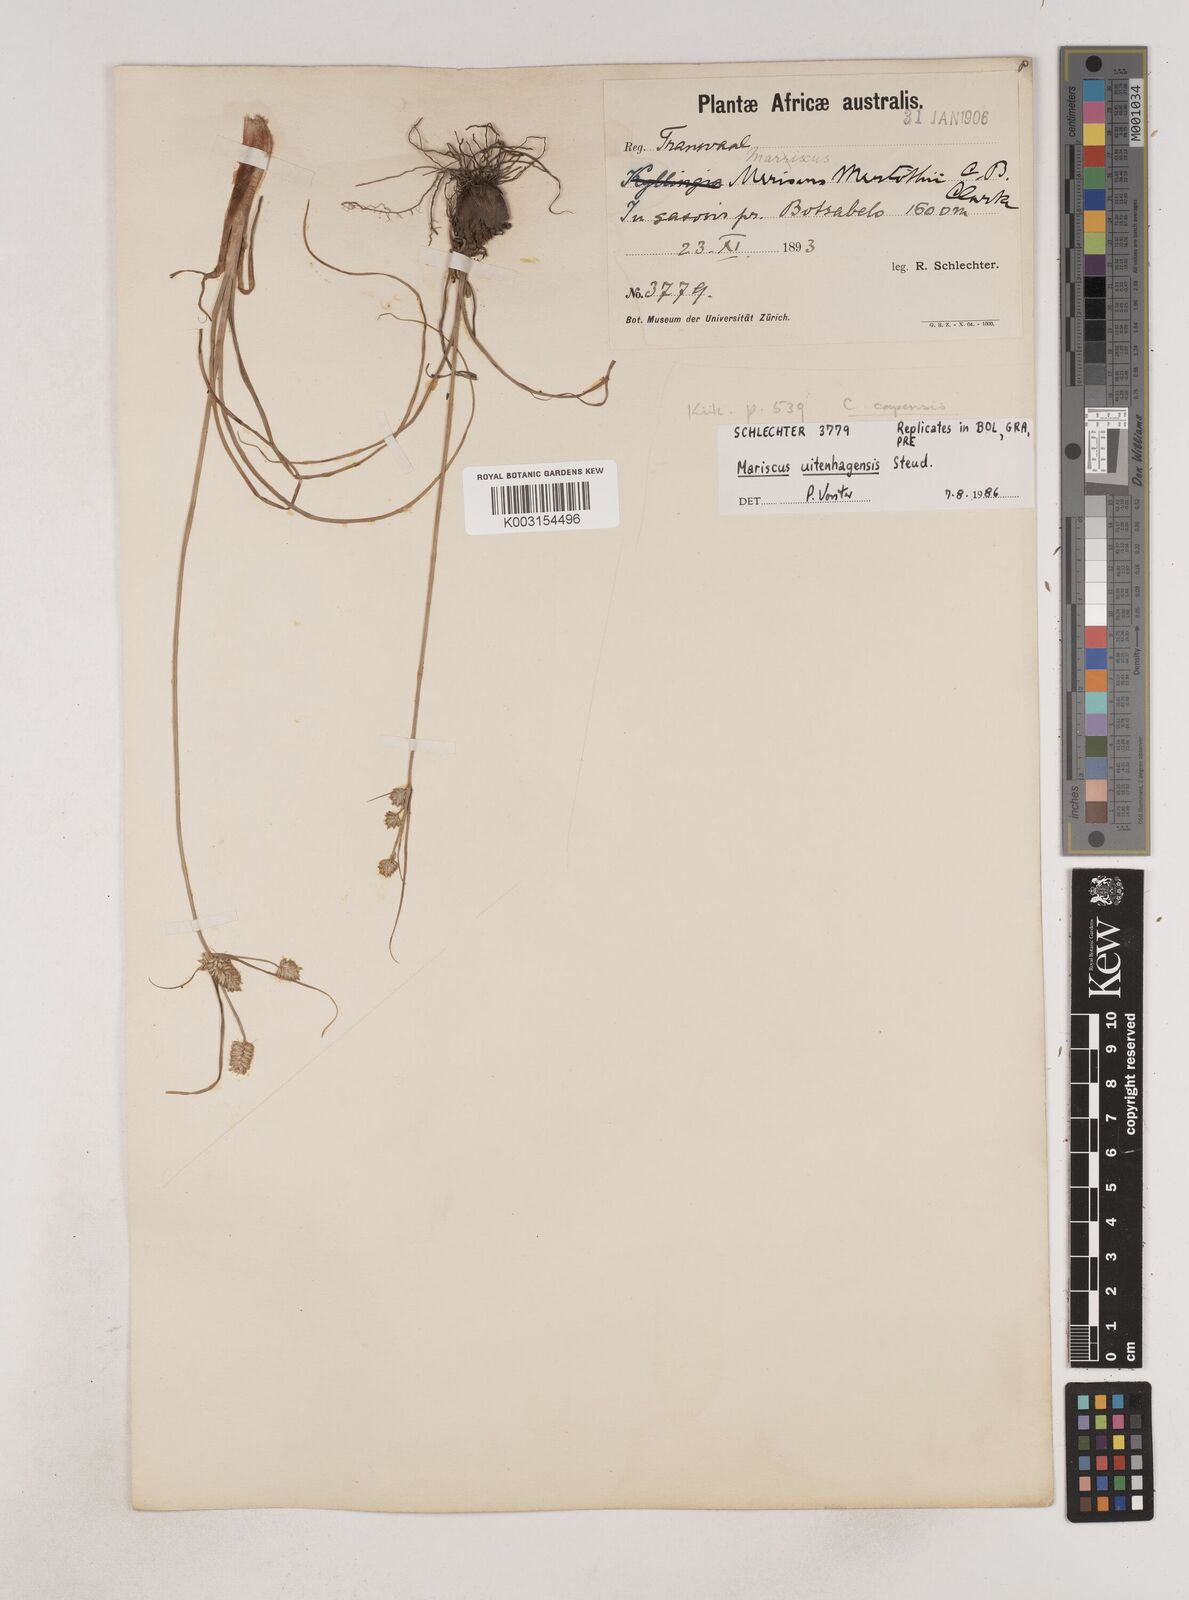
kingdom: Plantae
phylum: Tracheophyta
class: Liliopsida
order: Poales
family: Cyperaceae
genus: Cyperus
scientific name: Cyperus capensis
